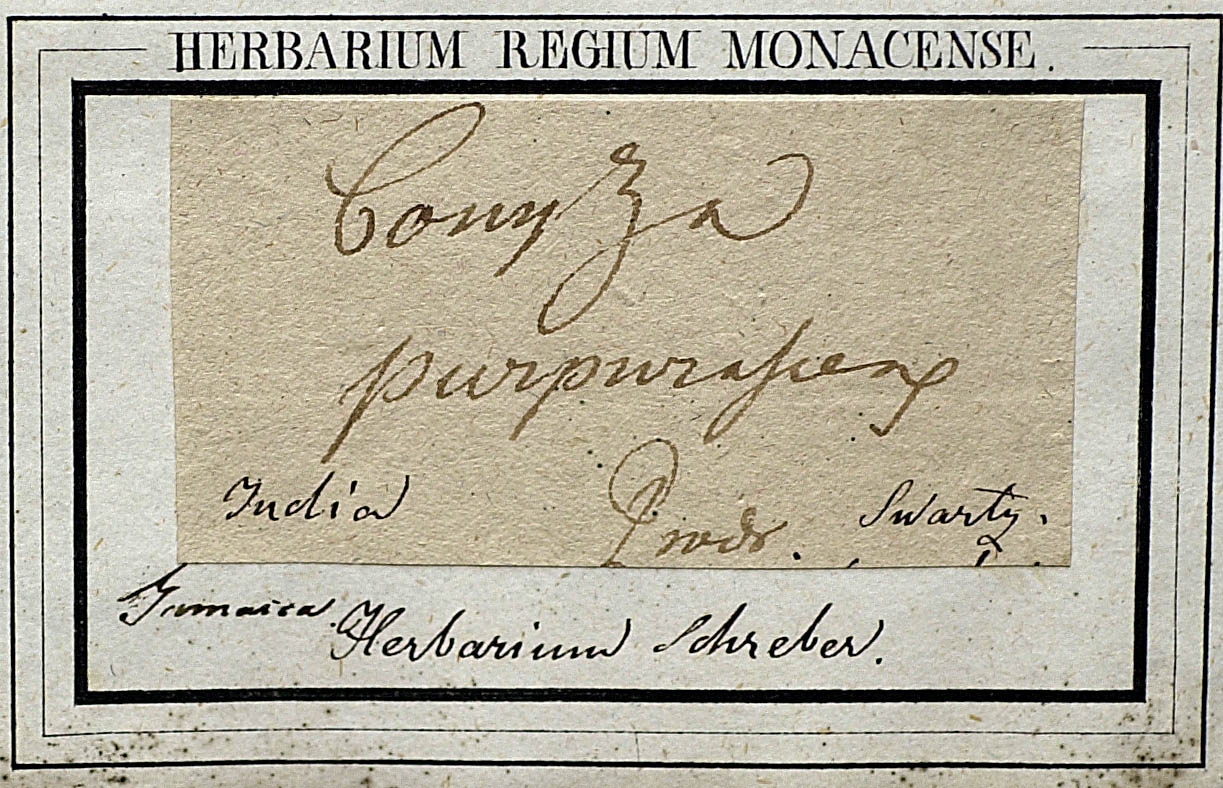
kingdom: Plantae
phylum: Tracheophyta
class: Magnoliopsida
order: Asterales
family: Asteraceae
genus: Pluchea
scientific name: Pluchea odorata
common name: Saltmarsh fleabane
